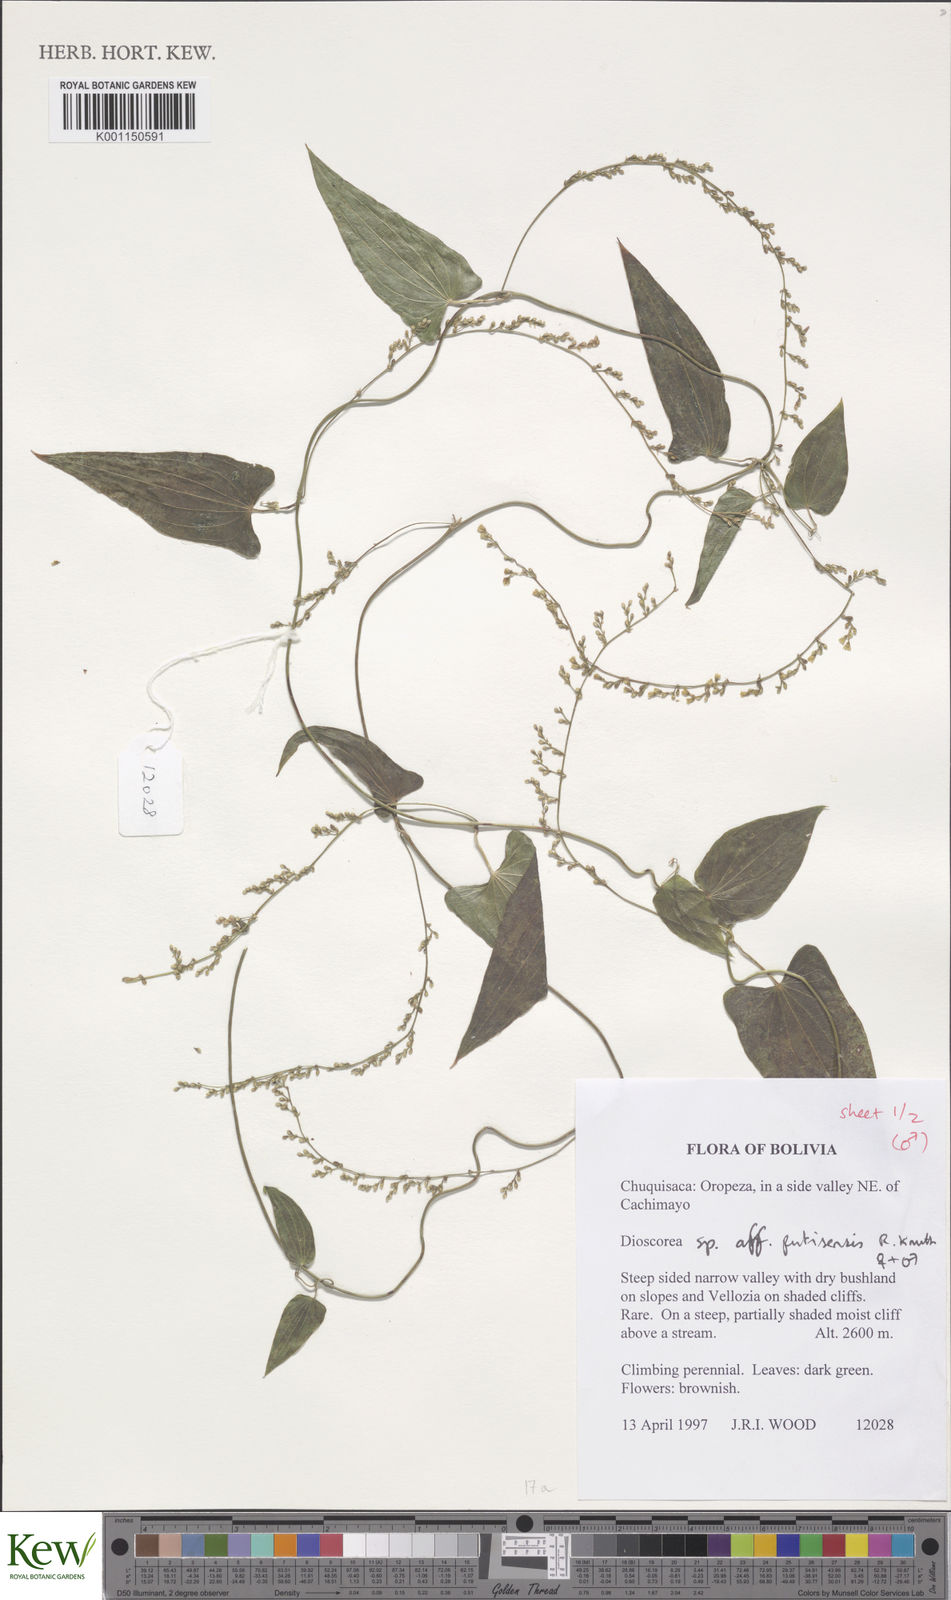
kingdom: Plantae
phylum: Tracheophyta
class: Liliopsida
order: Dioscoreales
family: Dioscoreaceae
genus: Dioscorea
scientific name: Dioscorea putisensis
